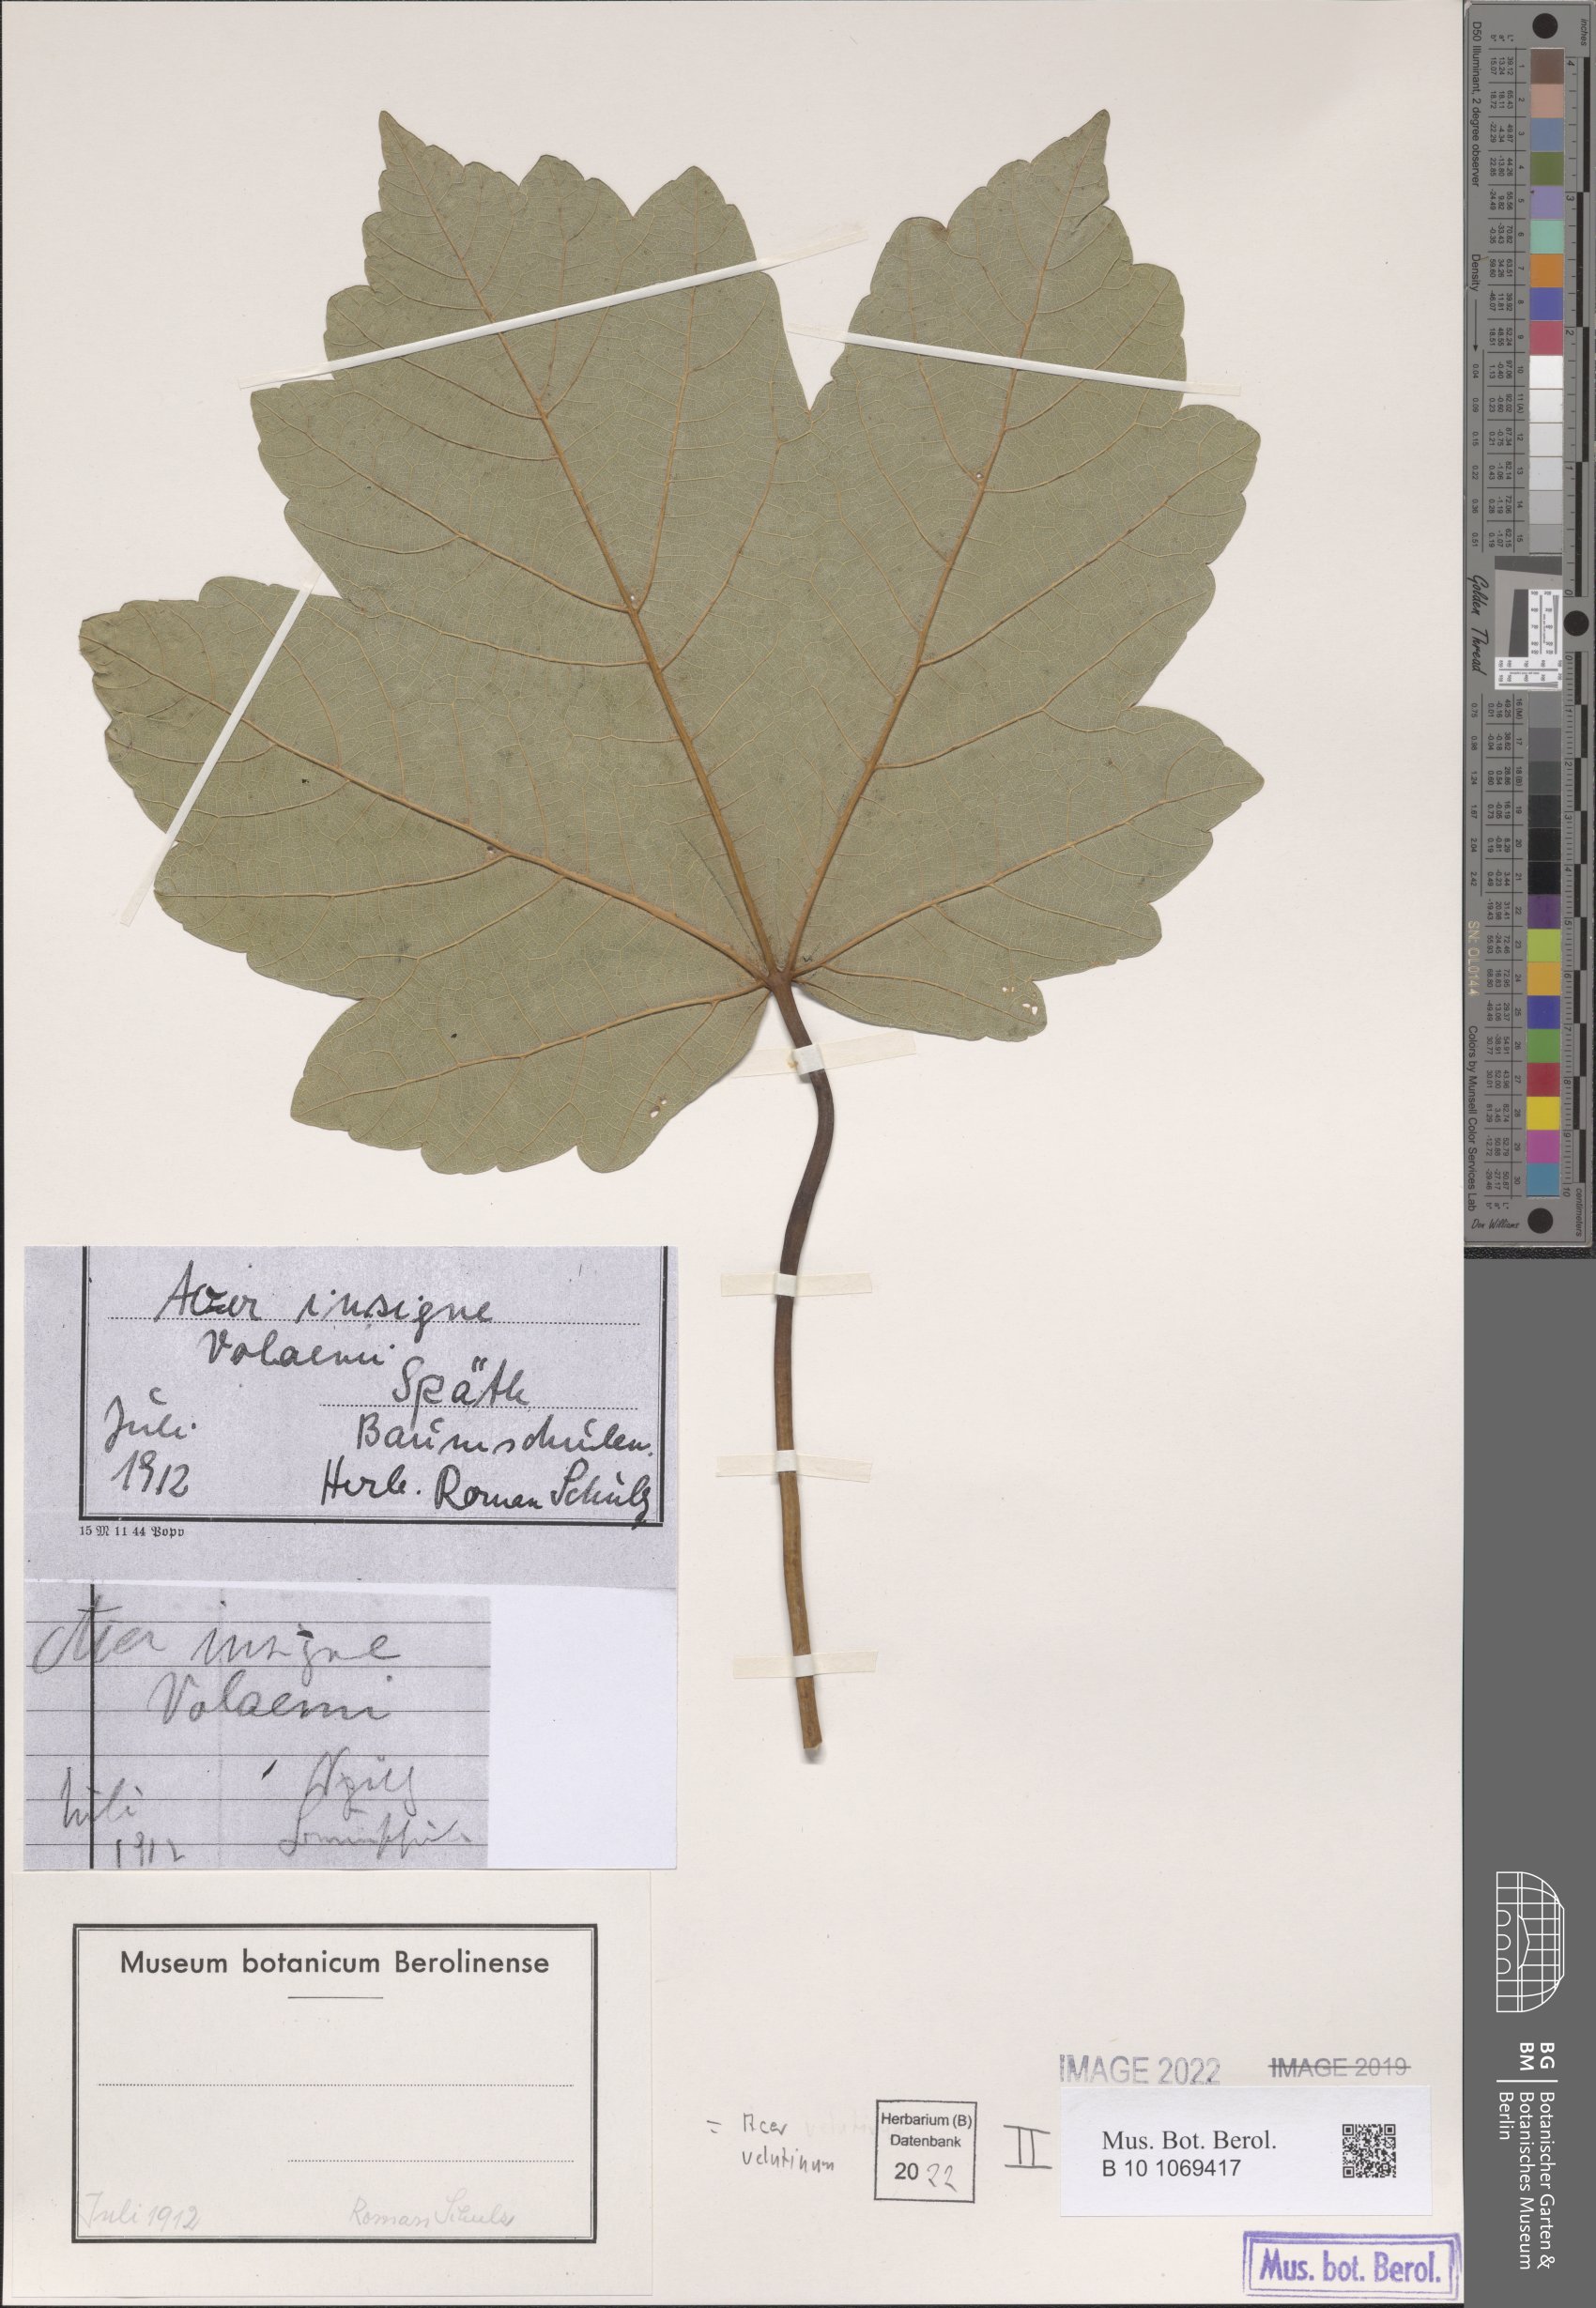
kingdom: Plantae
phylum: Tracheophyta
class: Magnoliopsida
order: Sapindales
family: Sapindaceae
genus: Acer
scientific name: Acer velutinum
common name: Velvet maple
